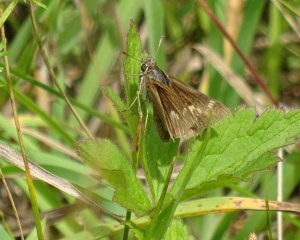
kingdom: Animalia
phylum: Arthropoda
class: Insecta
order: Lepidoptera
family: Hesperiidae
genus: Polites
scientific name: Polites
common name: Crossline Skipper
